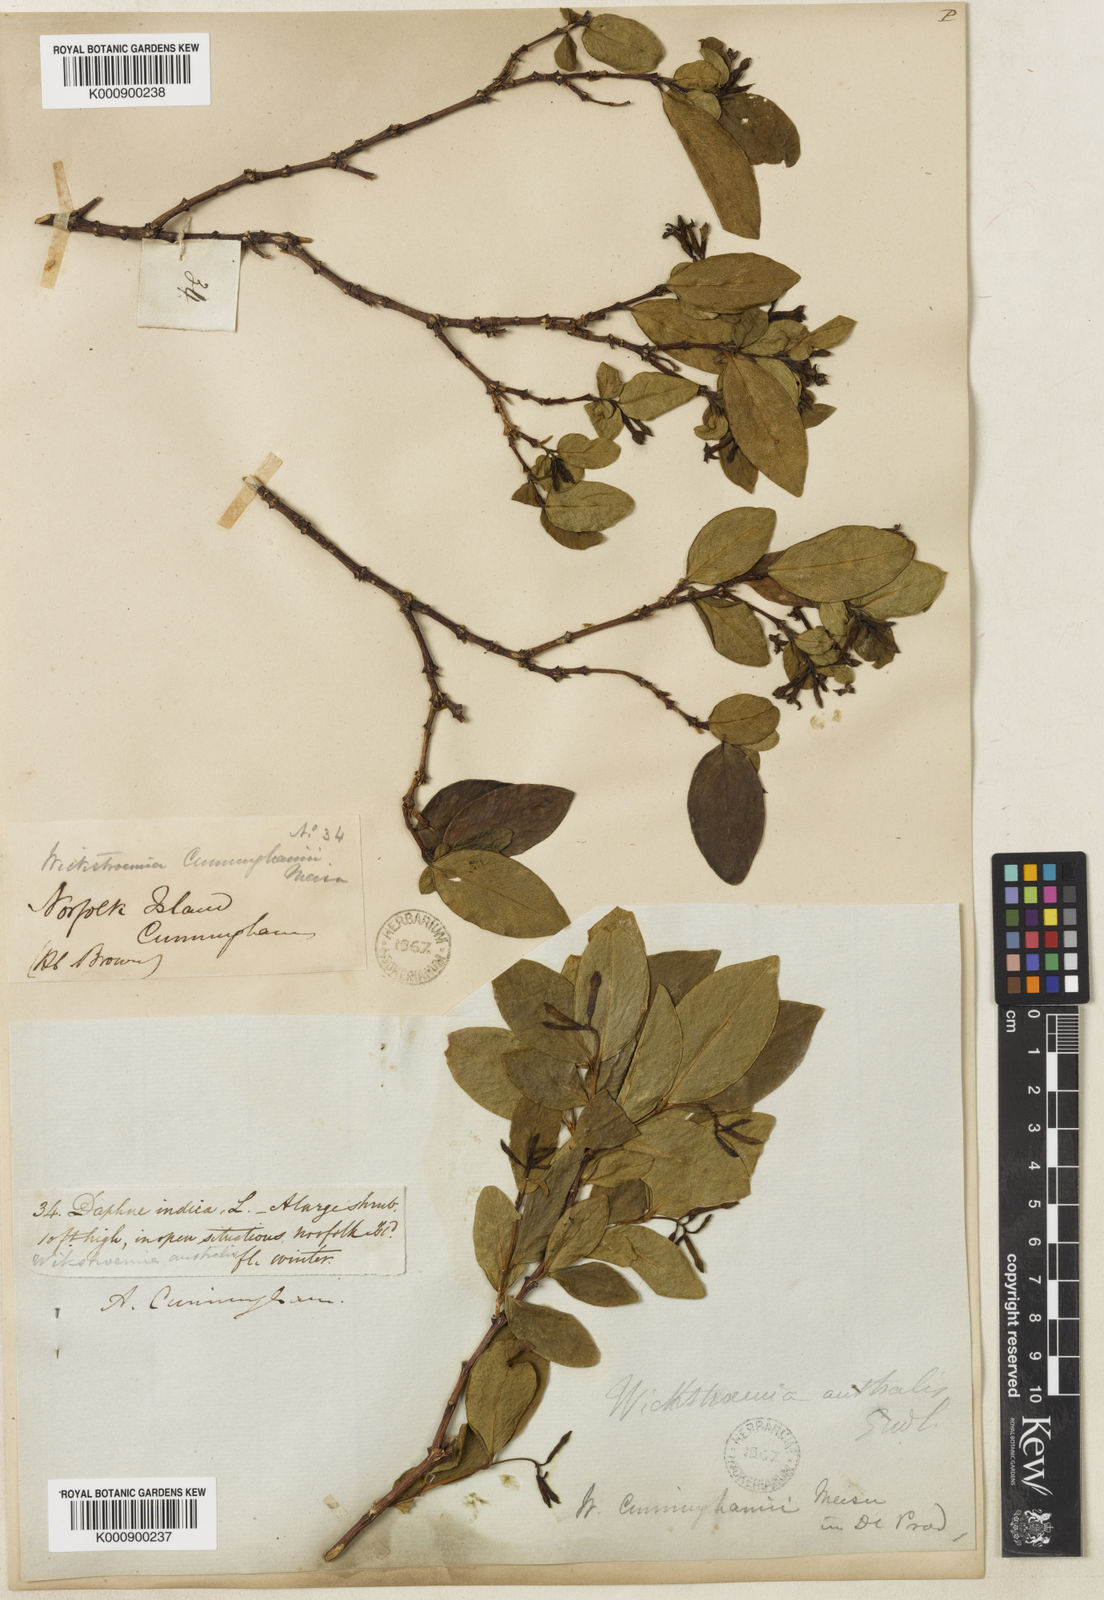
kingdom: Plantae
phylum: Tracheophyta
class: Magnoliopsida
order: Malvales
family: Thymelaeaceae
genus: Wikstroemia
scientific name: Wikstroemia australis
